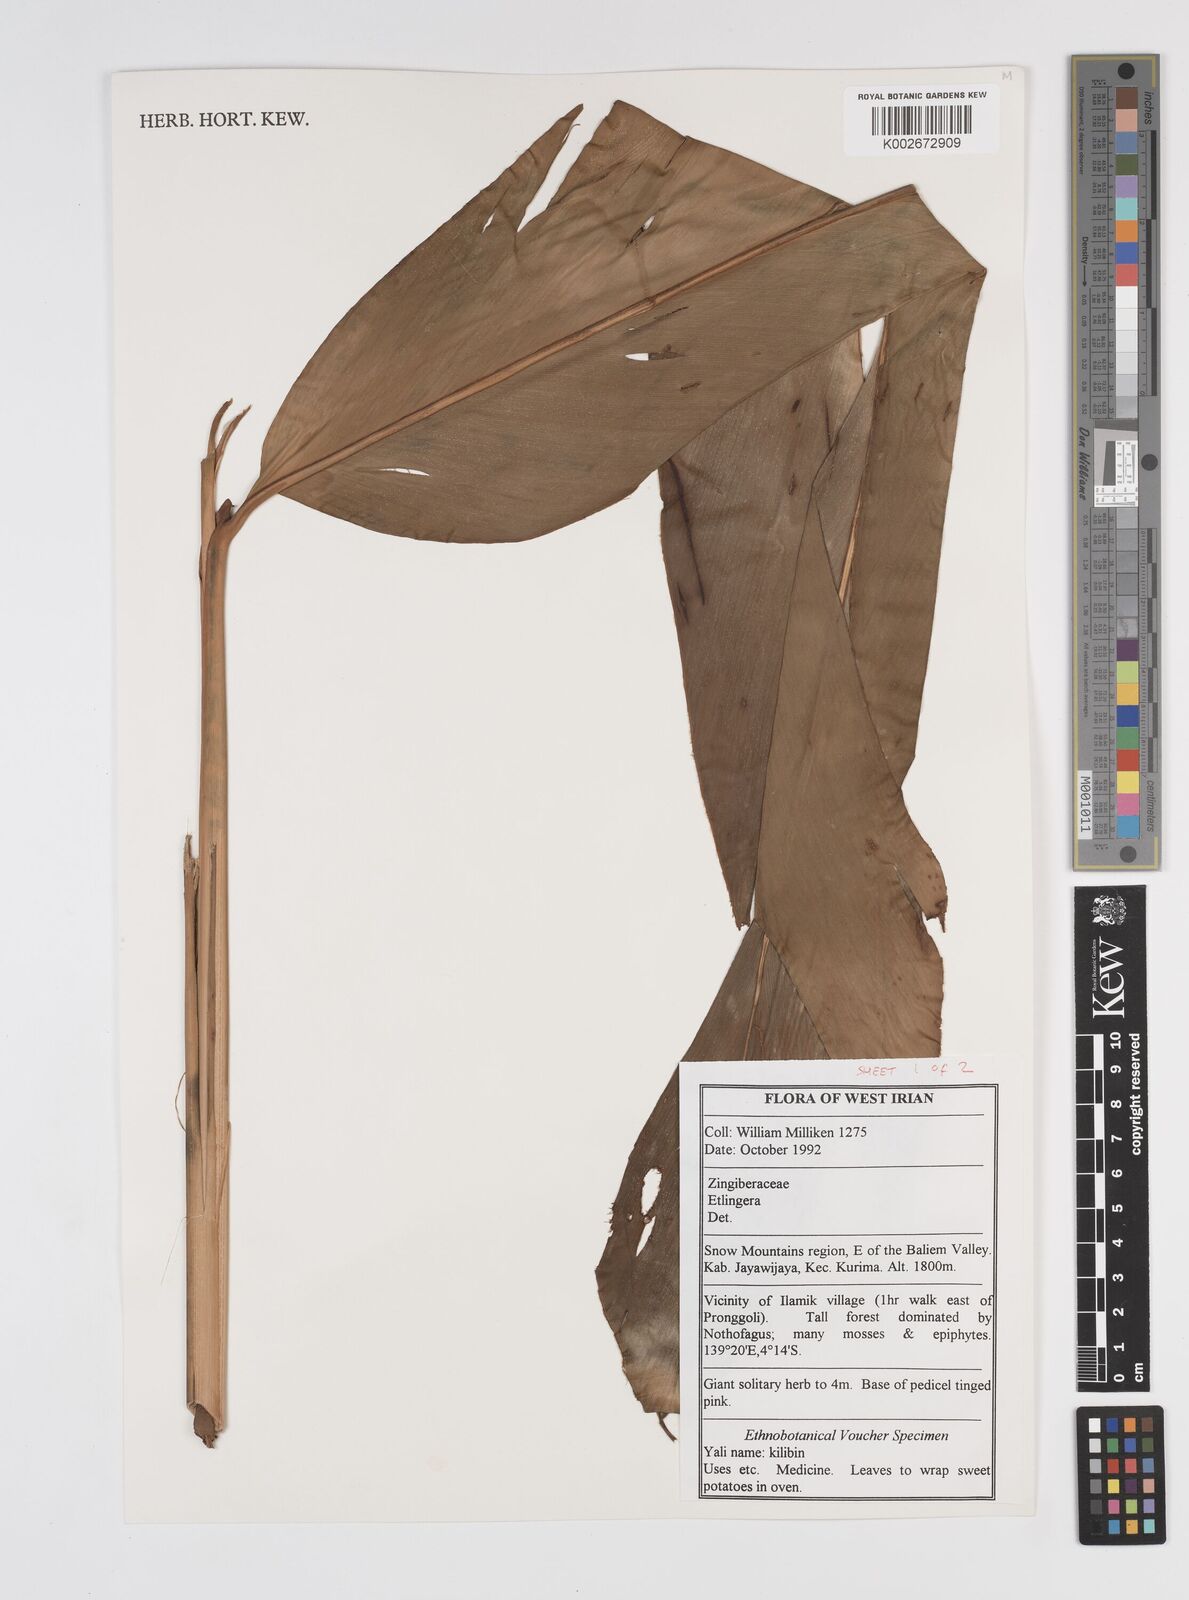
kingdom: Plantae
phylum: Tracheophyta
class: Liliopsida
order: Zingiberales
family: Zingiberaceae
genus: Etlingera
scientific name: Etlingera
